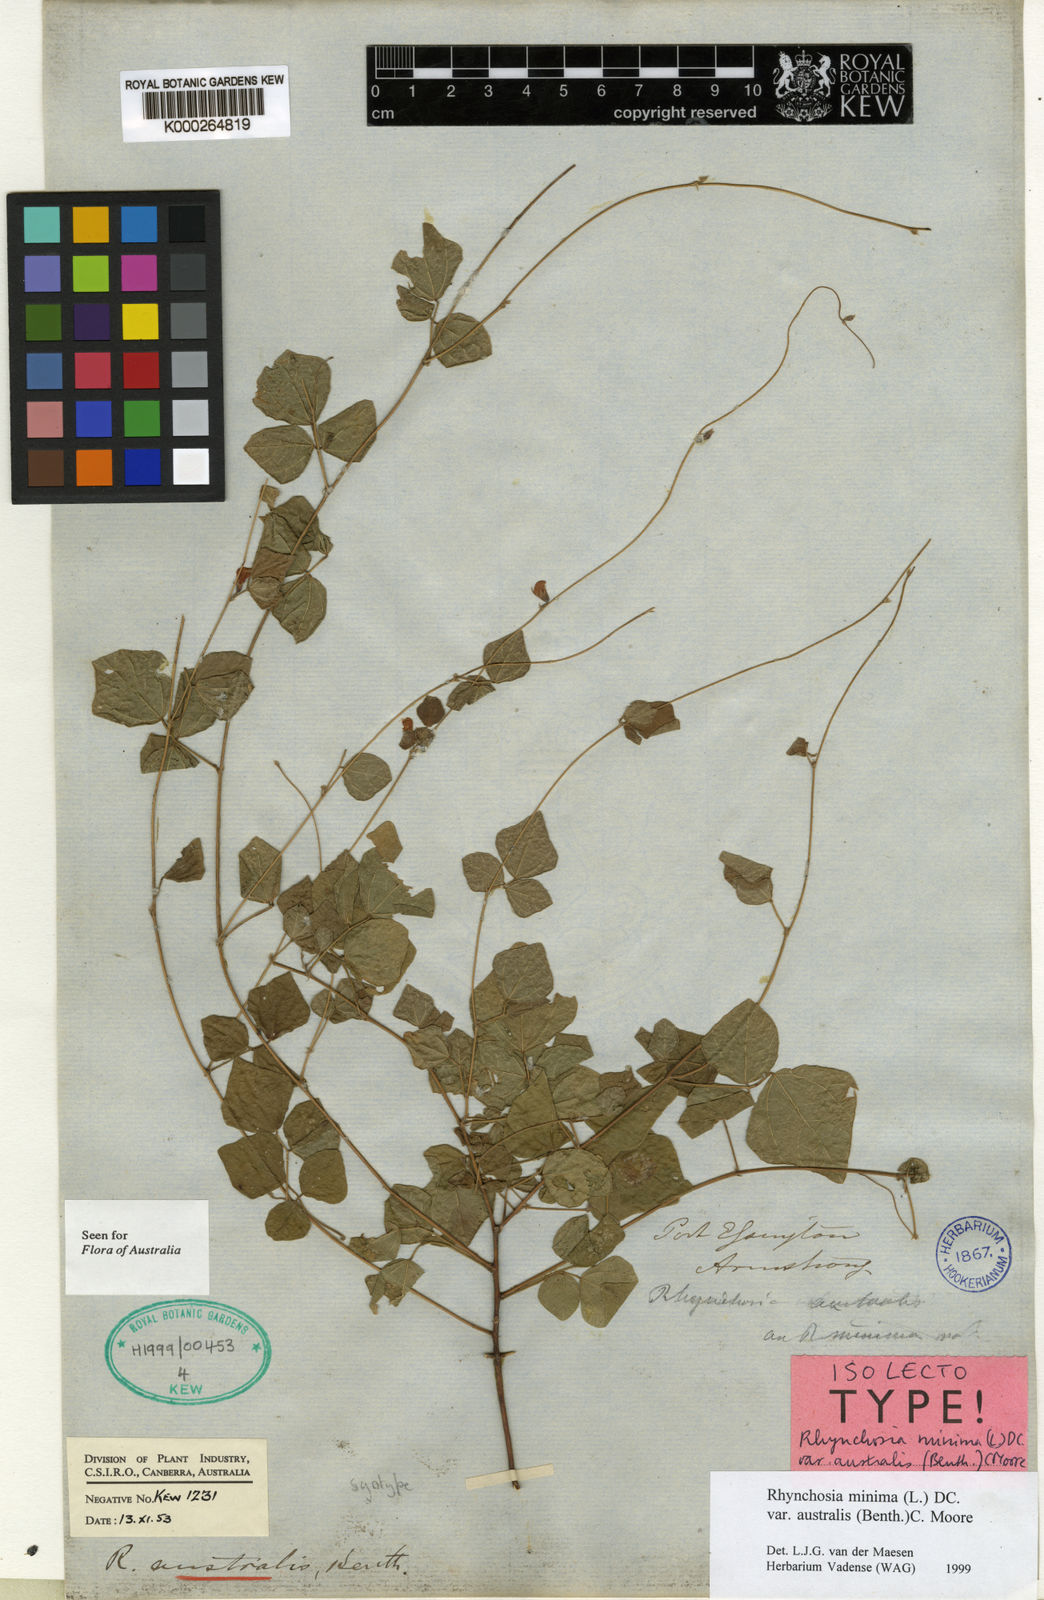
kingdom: Plantae
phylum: Tracheophyta
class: Magnoliopsida
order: Fabales
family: Fabaceae
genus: Rhynchosia
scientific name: Rhynchosia australis
